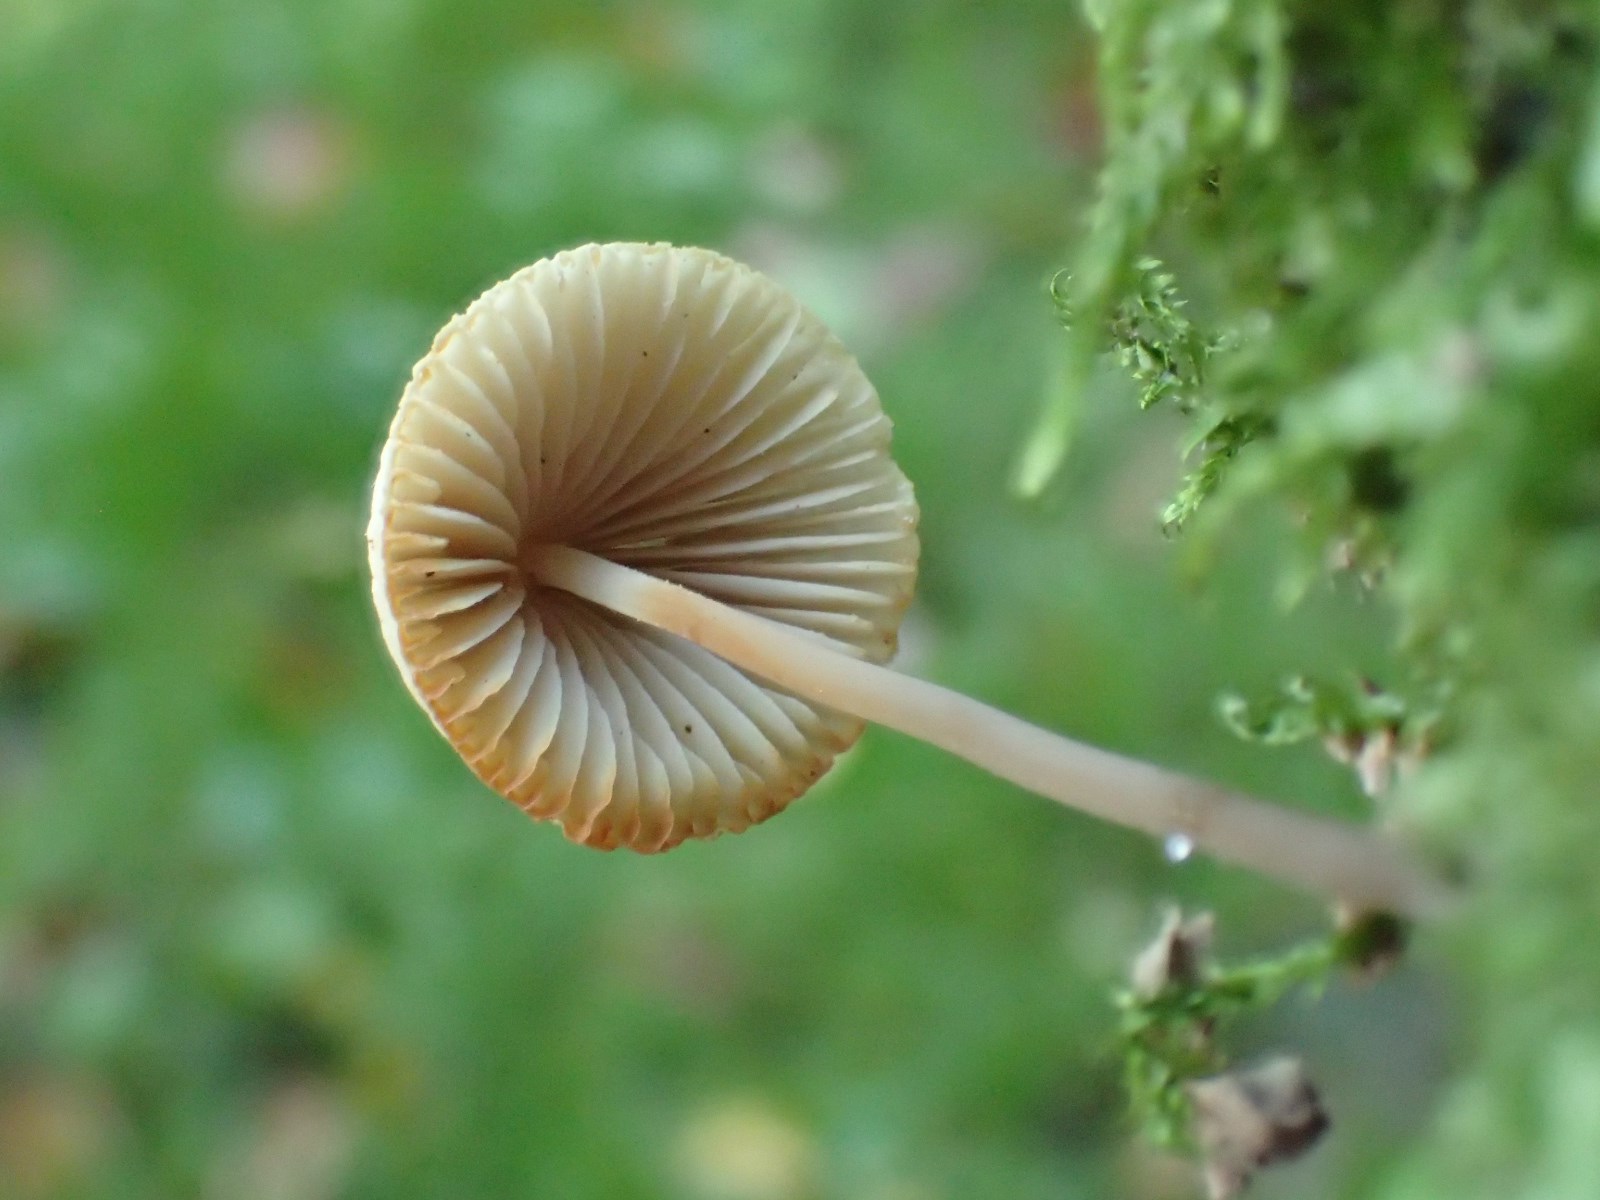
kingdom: Fungi
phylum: Basidiomycota
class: Agaricomycetes
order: Agaricales
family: Mycenaceae
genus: Mycena
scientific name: Mycena arcangeliana
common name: oliven-huesvamp
